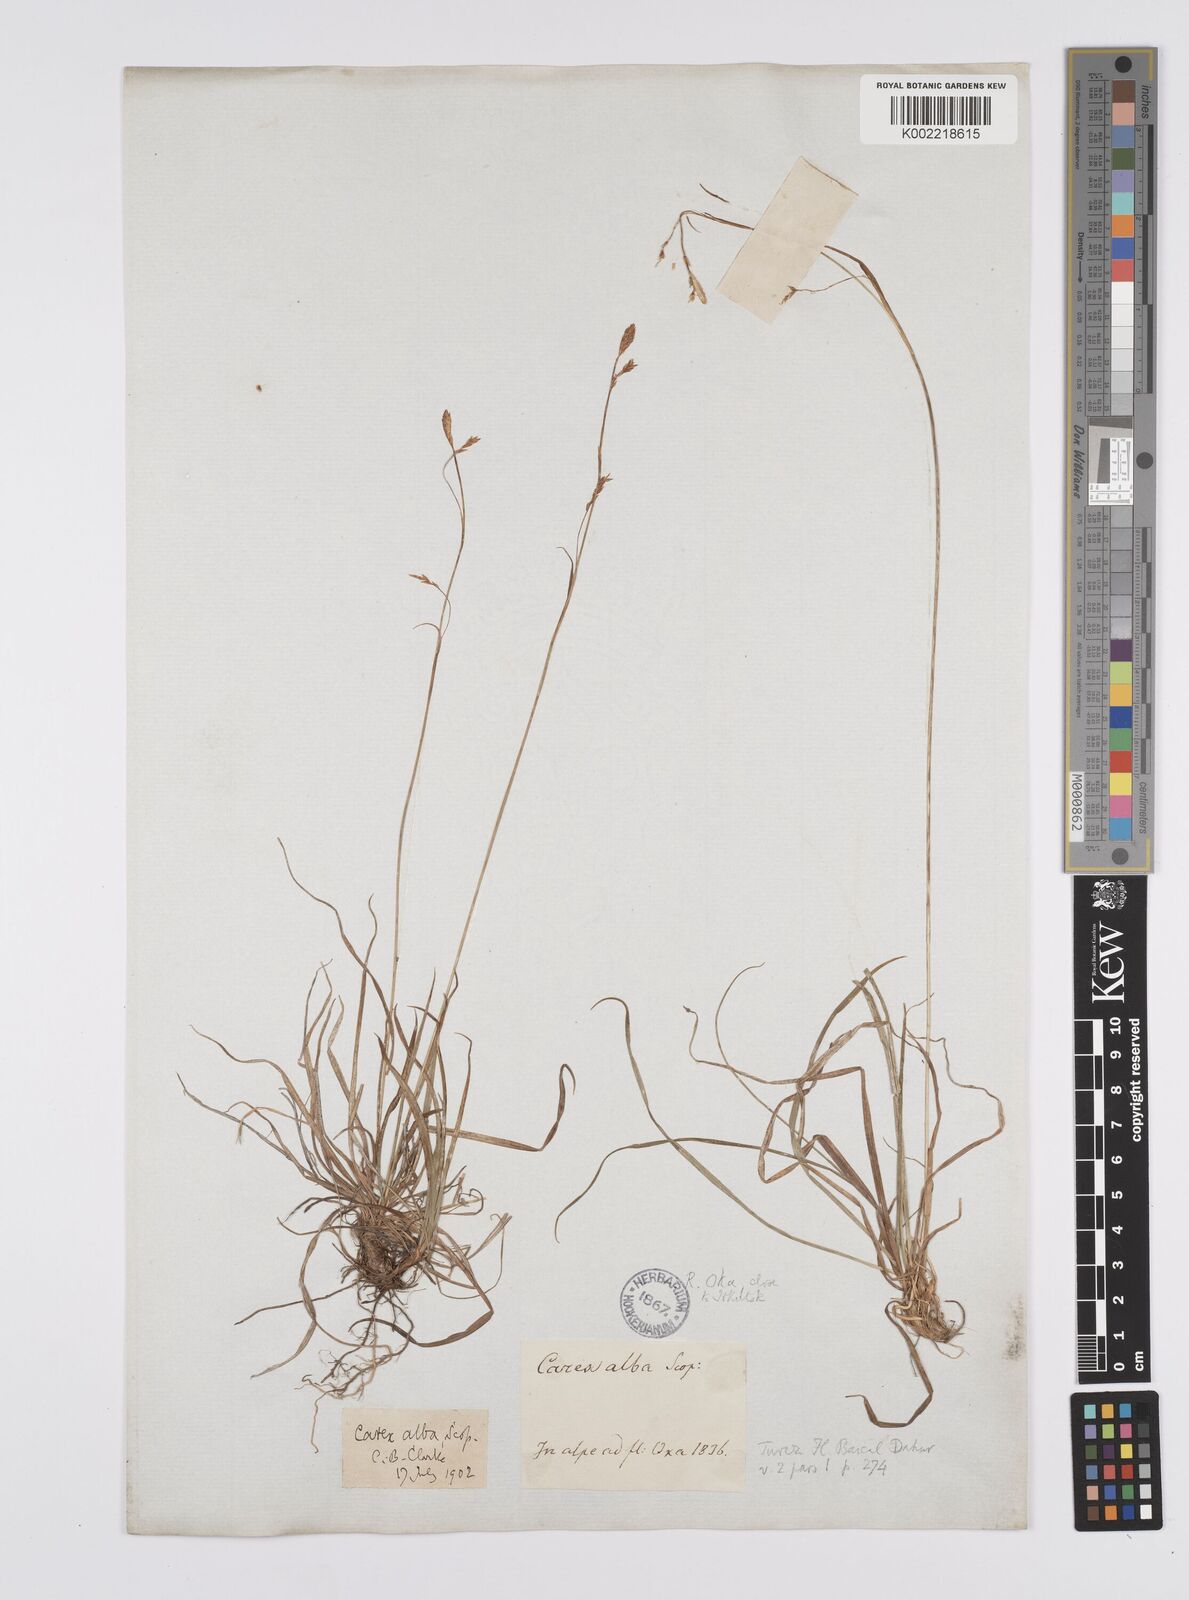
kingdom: Plantae
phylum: Tracheophyta
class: Liliopsida
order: Poales
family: Cyperaceae
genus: Carex
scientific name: Carex alba
